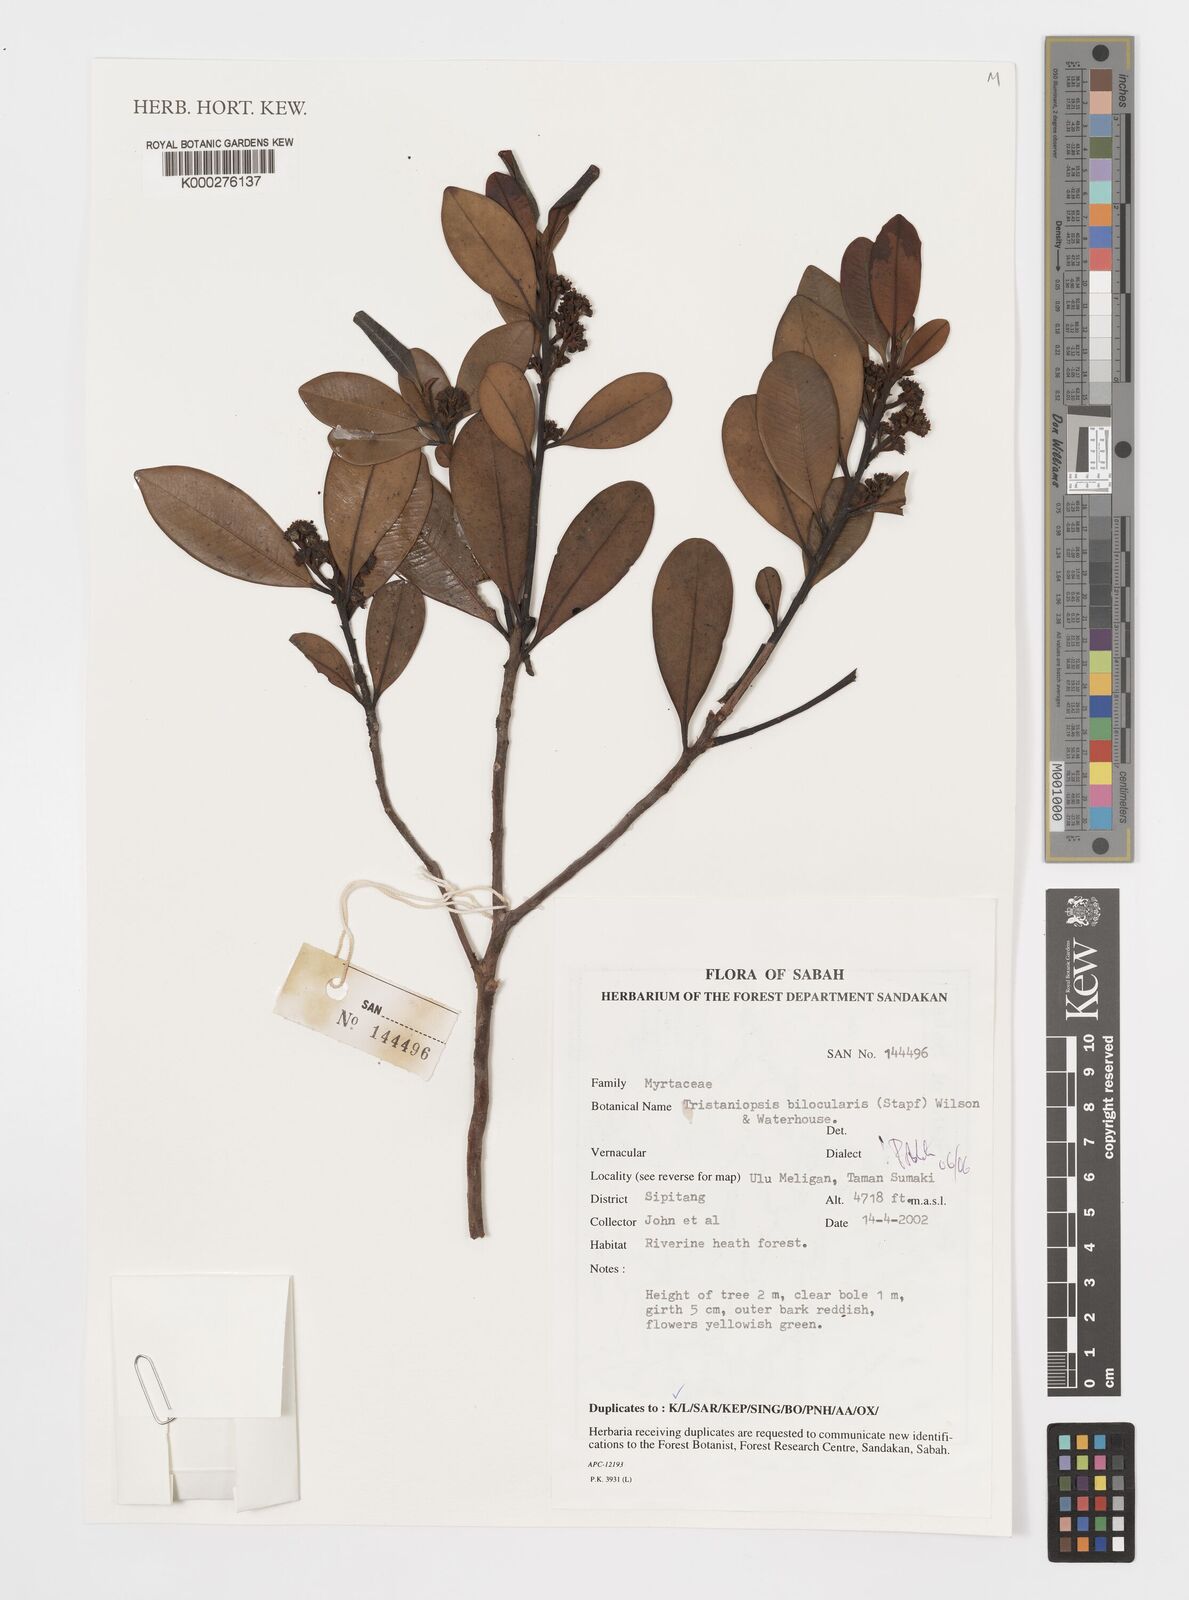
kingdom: Plantae
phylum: Tracheophyta
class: Magnoliopsida
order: Myrtales
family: Myrtaceae
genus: Tristaniopsis
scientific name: Tristaniopsis bilocularis
